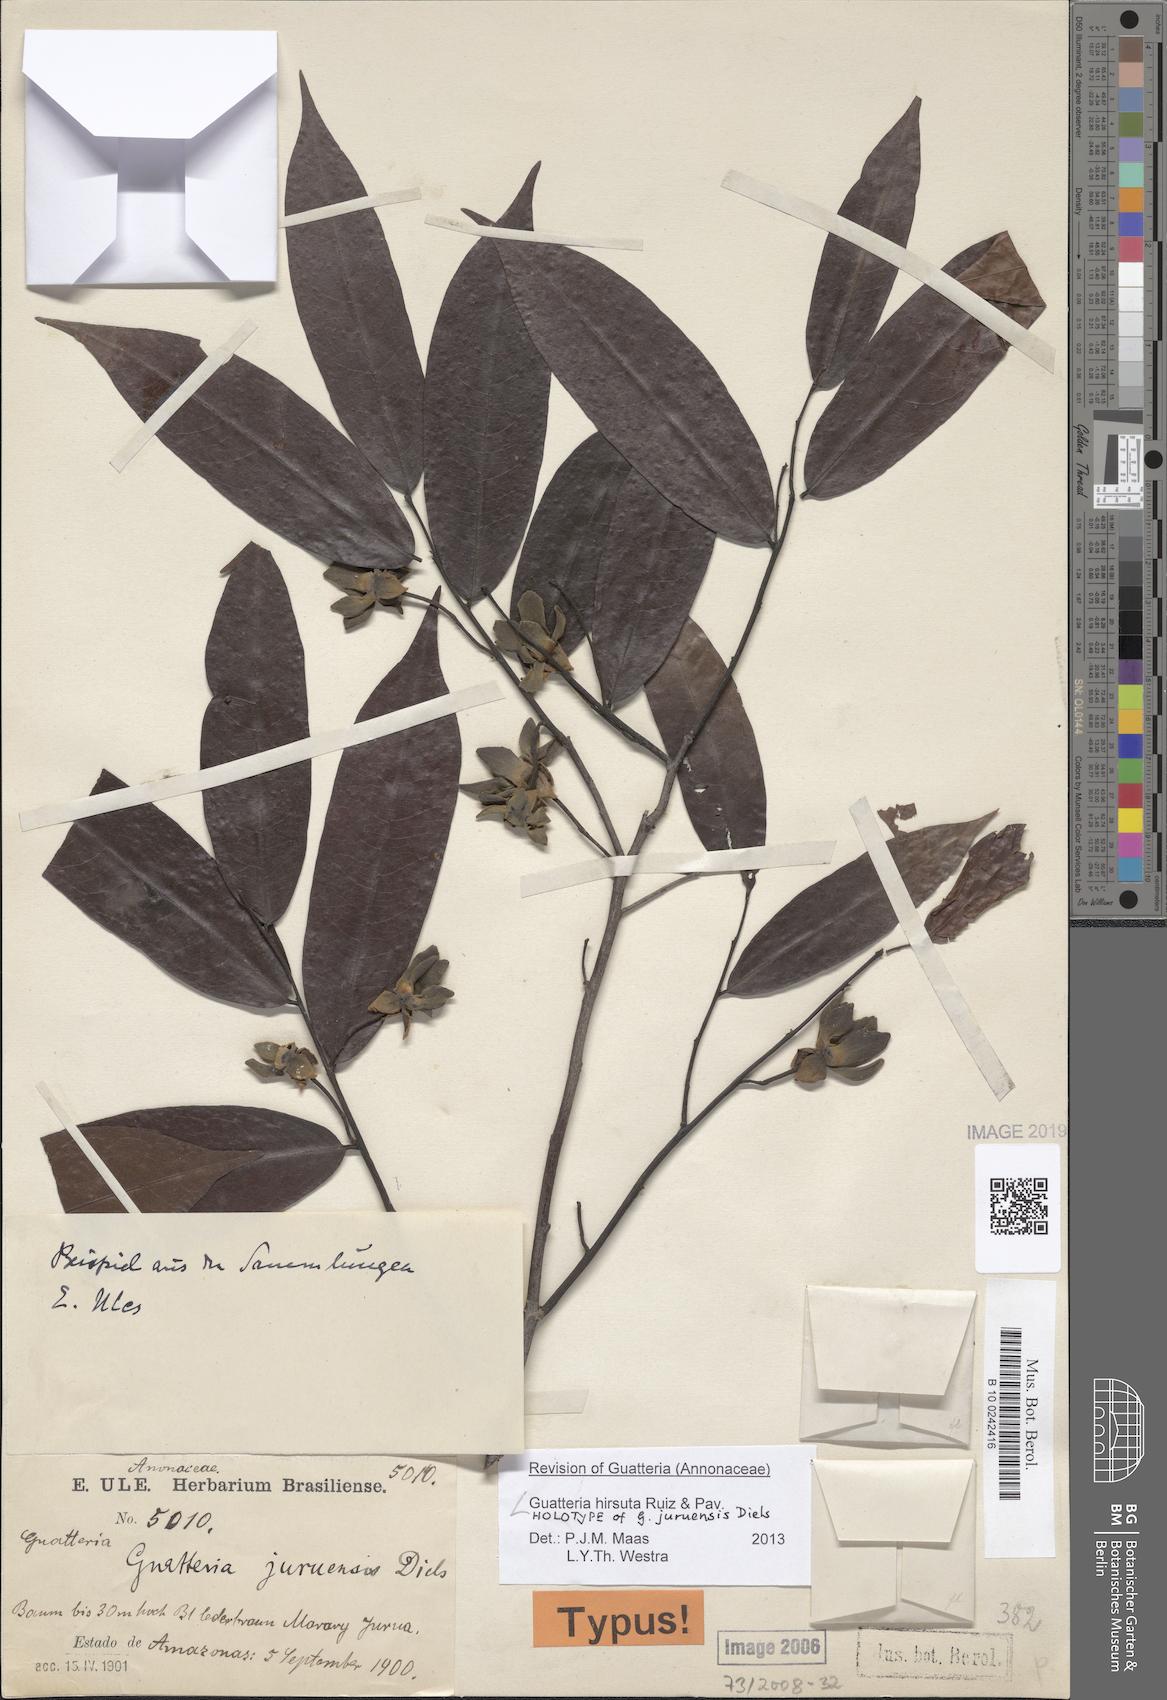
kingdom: Plantae
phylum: Tracheophyta
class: Magnoliopsida
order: Magnoliales
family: Annonaceae
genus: Guatteria
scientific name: Guatteria hirsuta
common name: Laurel
